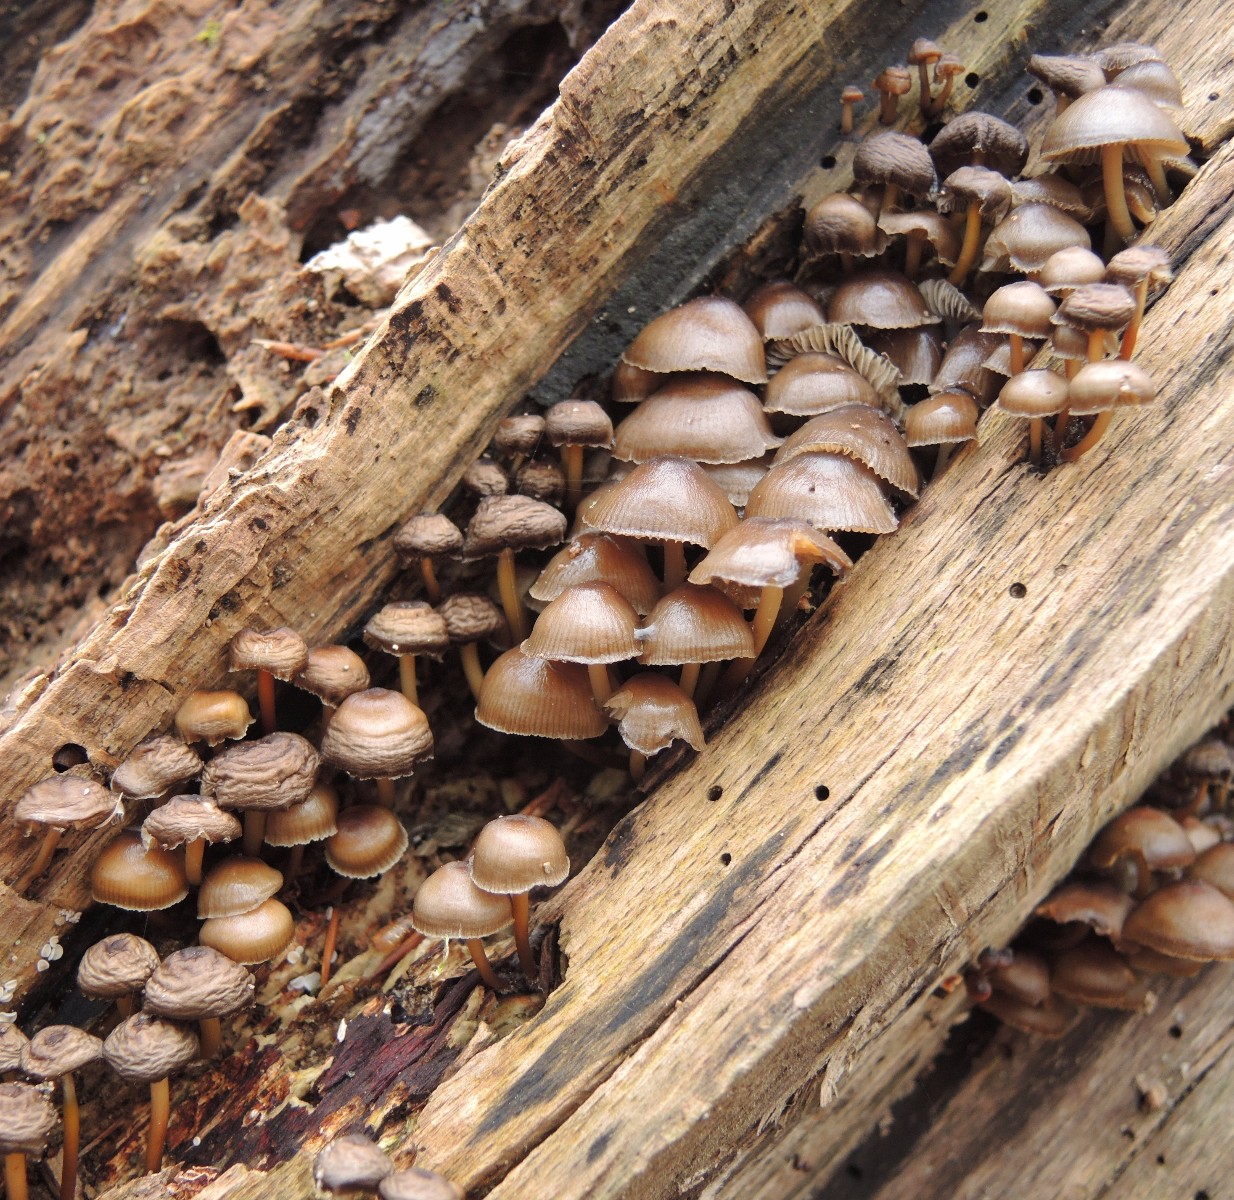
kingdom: Fungi
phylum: Basidiomycota
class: Agaricomycetes
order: Agaricales
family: Mycenaceae
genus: Mycena
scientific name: Mycena tintinnabulum
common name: vinter-huesvamp
